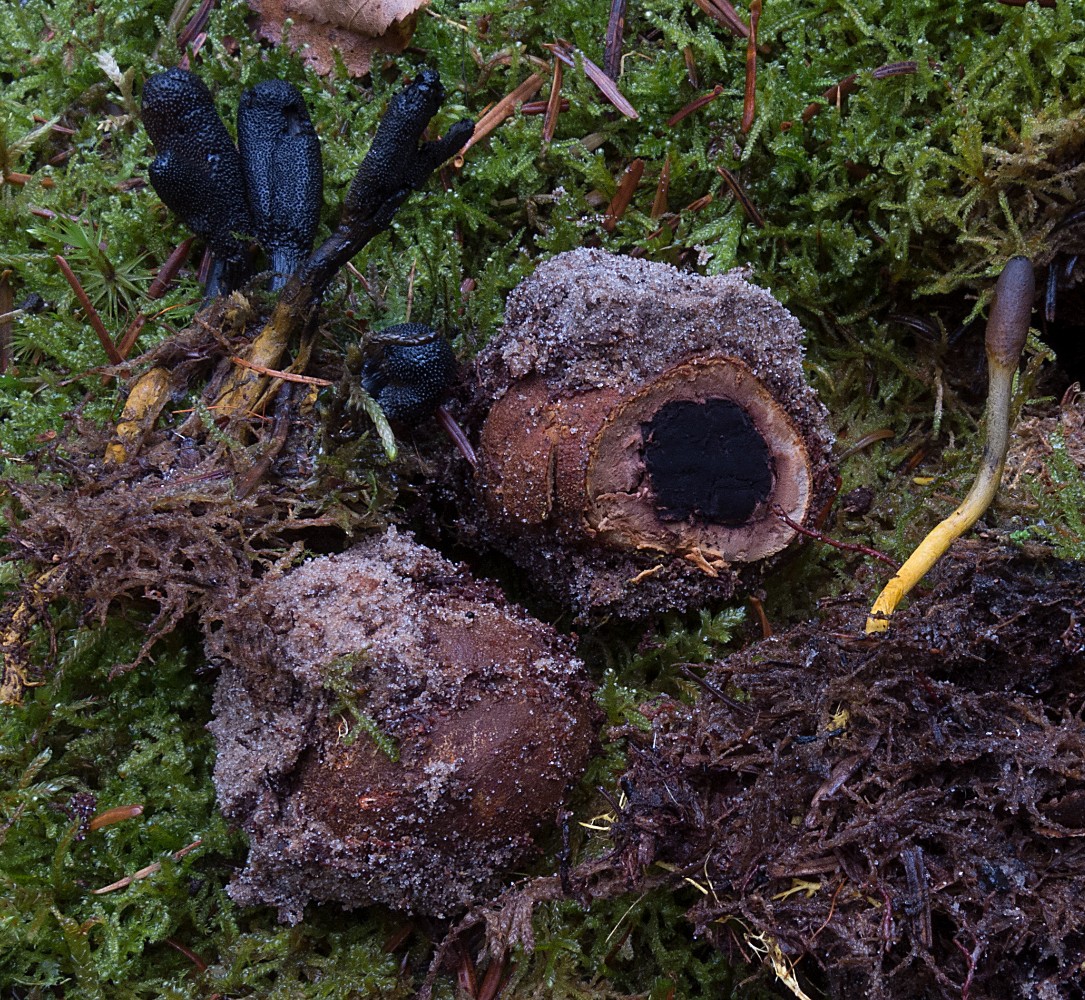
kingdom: Fungi
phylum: Ascomycota
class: Eurotiomycetes
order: Eurotiales
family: Elaphomycetaceae
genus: Elaphomyces
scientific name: Elaphomyces granulatus
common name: grynet hjortetrøffel
